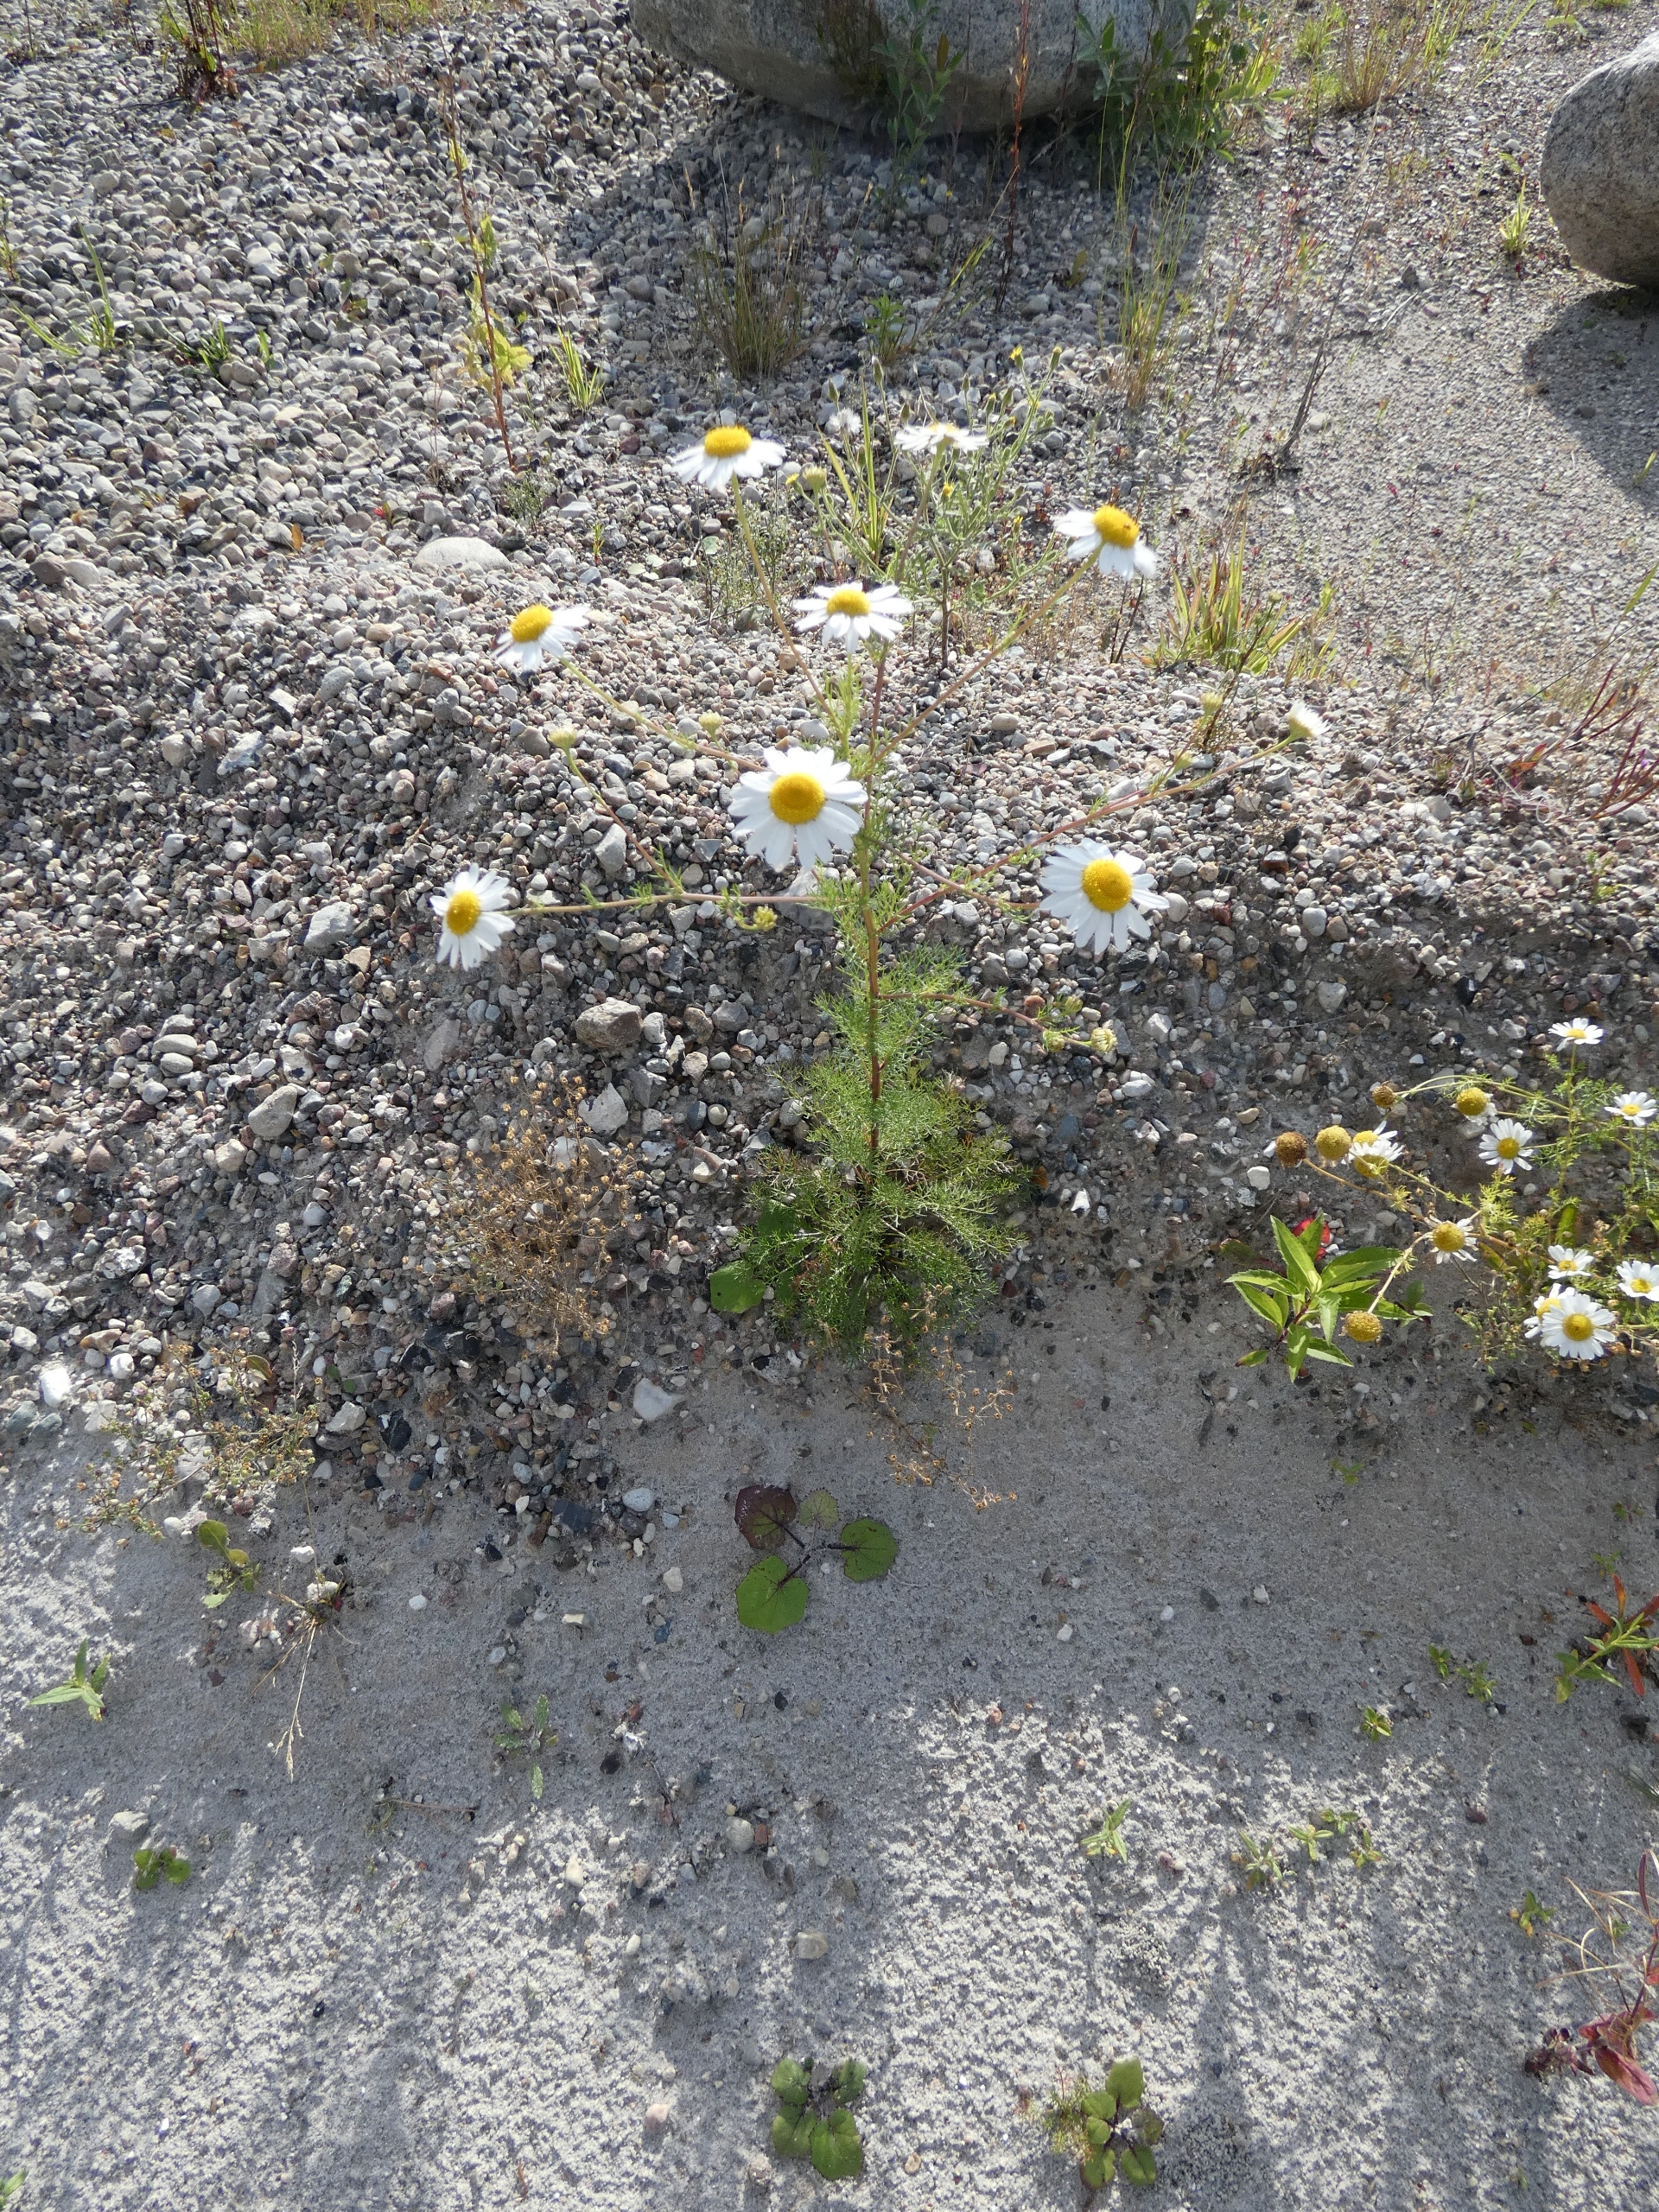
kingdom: Plantae
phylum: Tracheophyta
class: Magnoliopsida
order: Asterales
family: Asteraceae
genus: Tripleurospermum
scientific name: Tripleurospermum inodorum
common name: Lugtløs kamille
